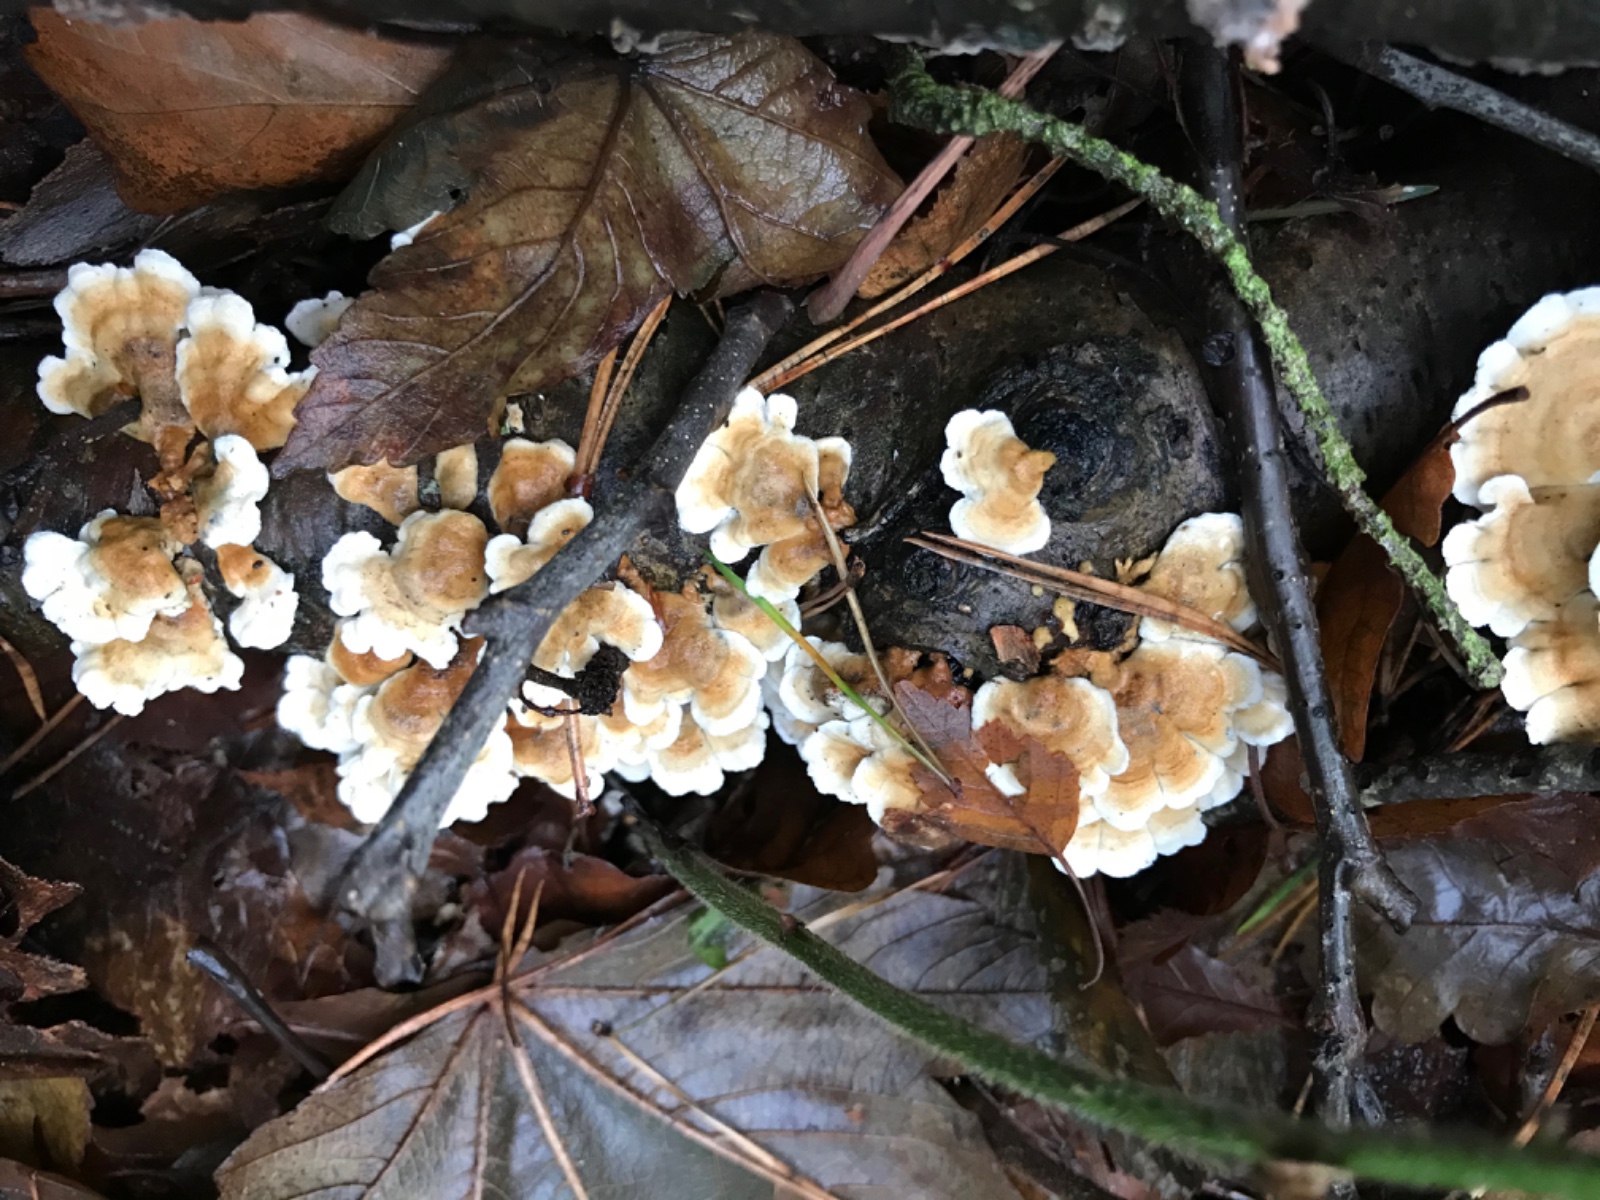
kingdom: Fungi
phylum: Basidiomycota
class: Agaricomycetes
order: Amylocorticiales
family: Amylocorticiaceae
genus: Plicaturopsis
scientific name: Plicaturopsis crispa
